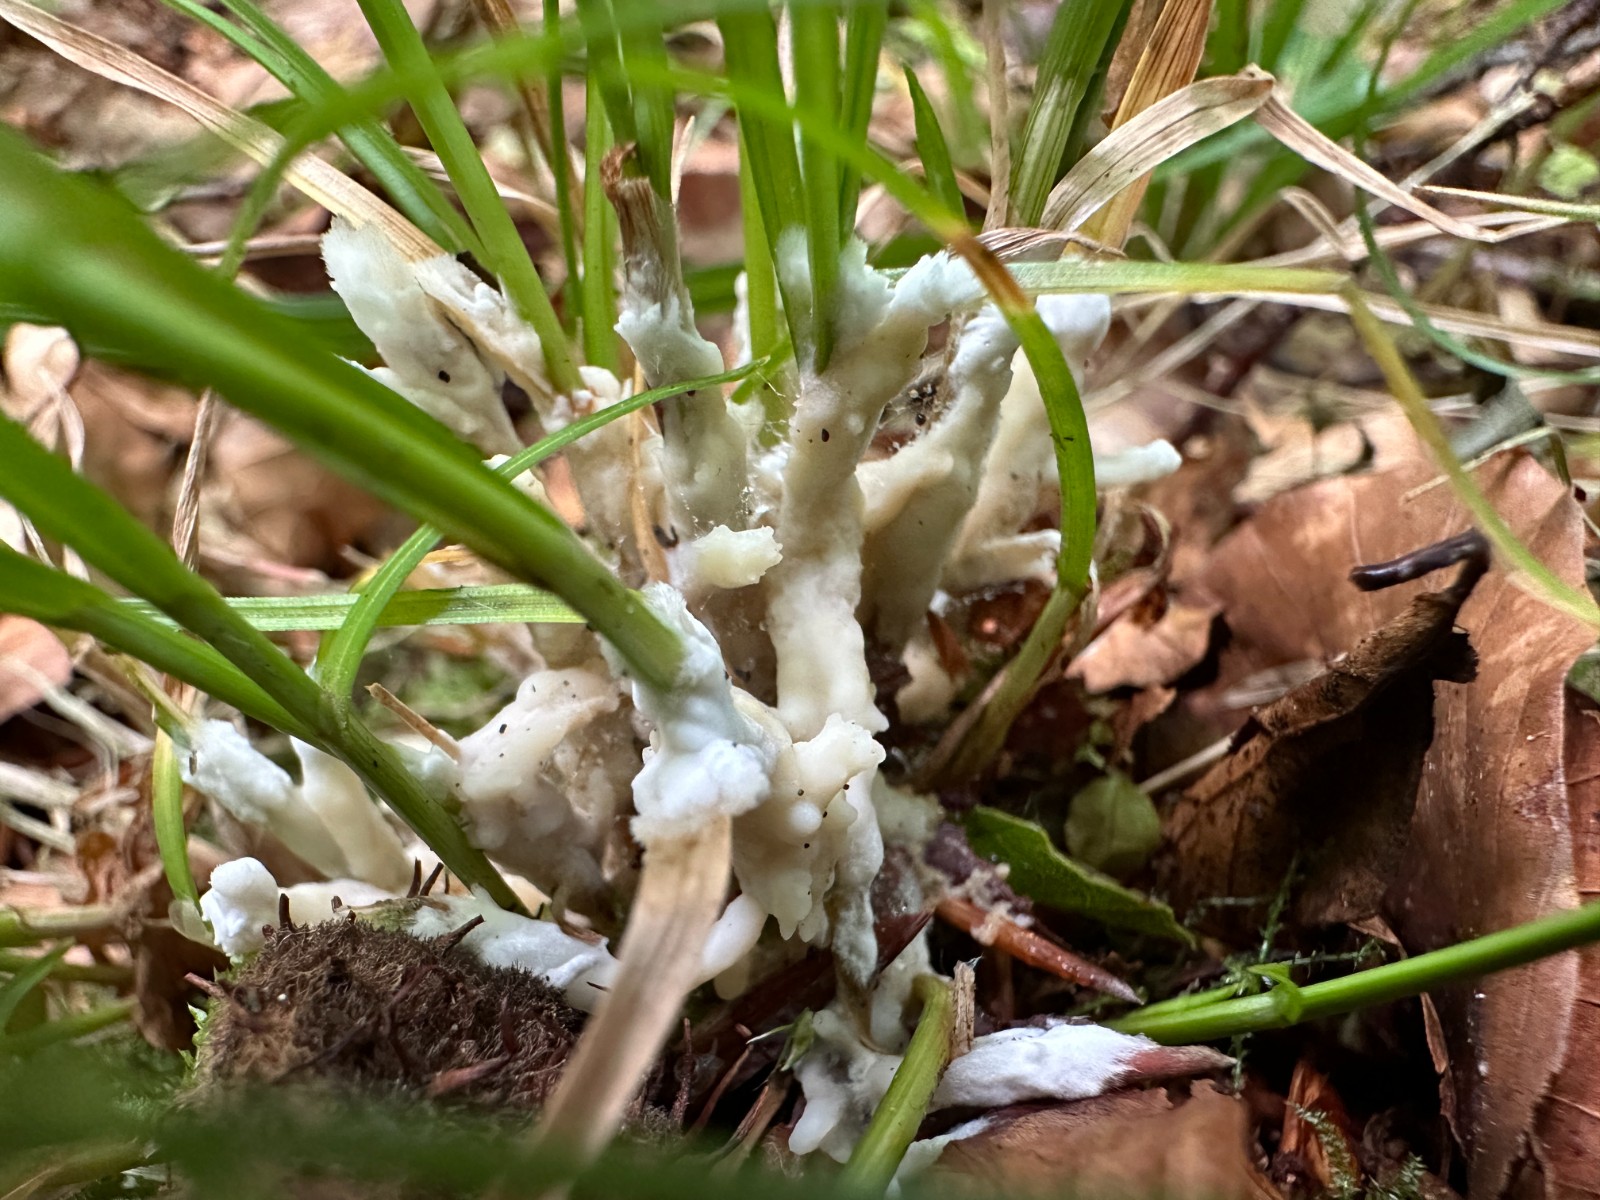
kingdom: Fungi
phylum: Basidiomycota
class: Agaricomycetes
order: Sebacinales
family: Sebacinaceae
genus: Sebacina
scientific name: Sebacina incrustans
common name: krybende bævretalg
